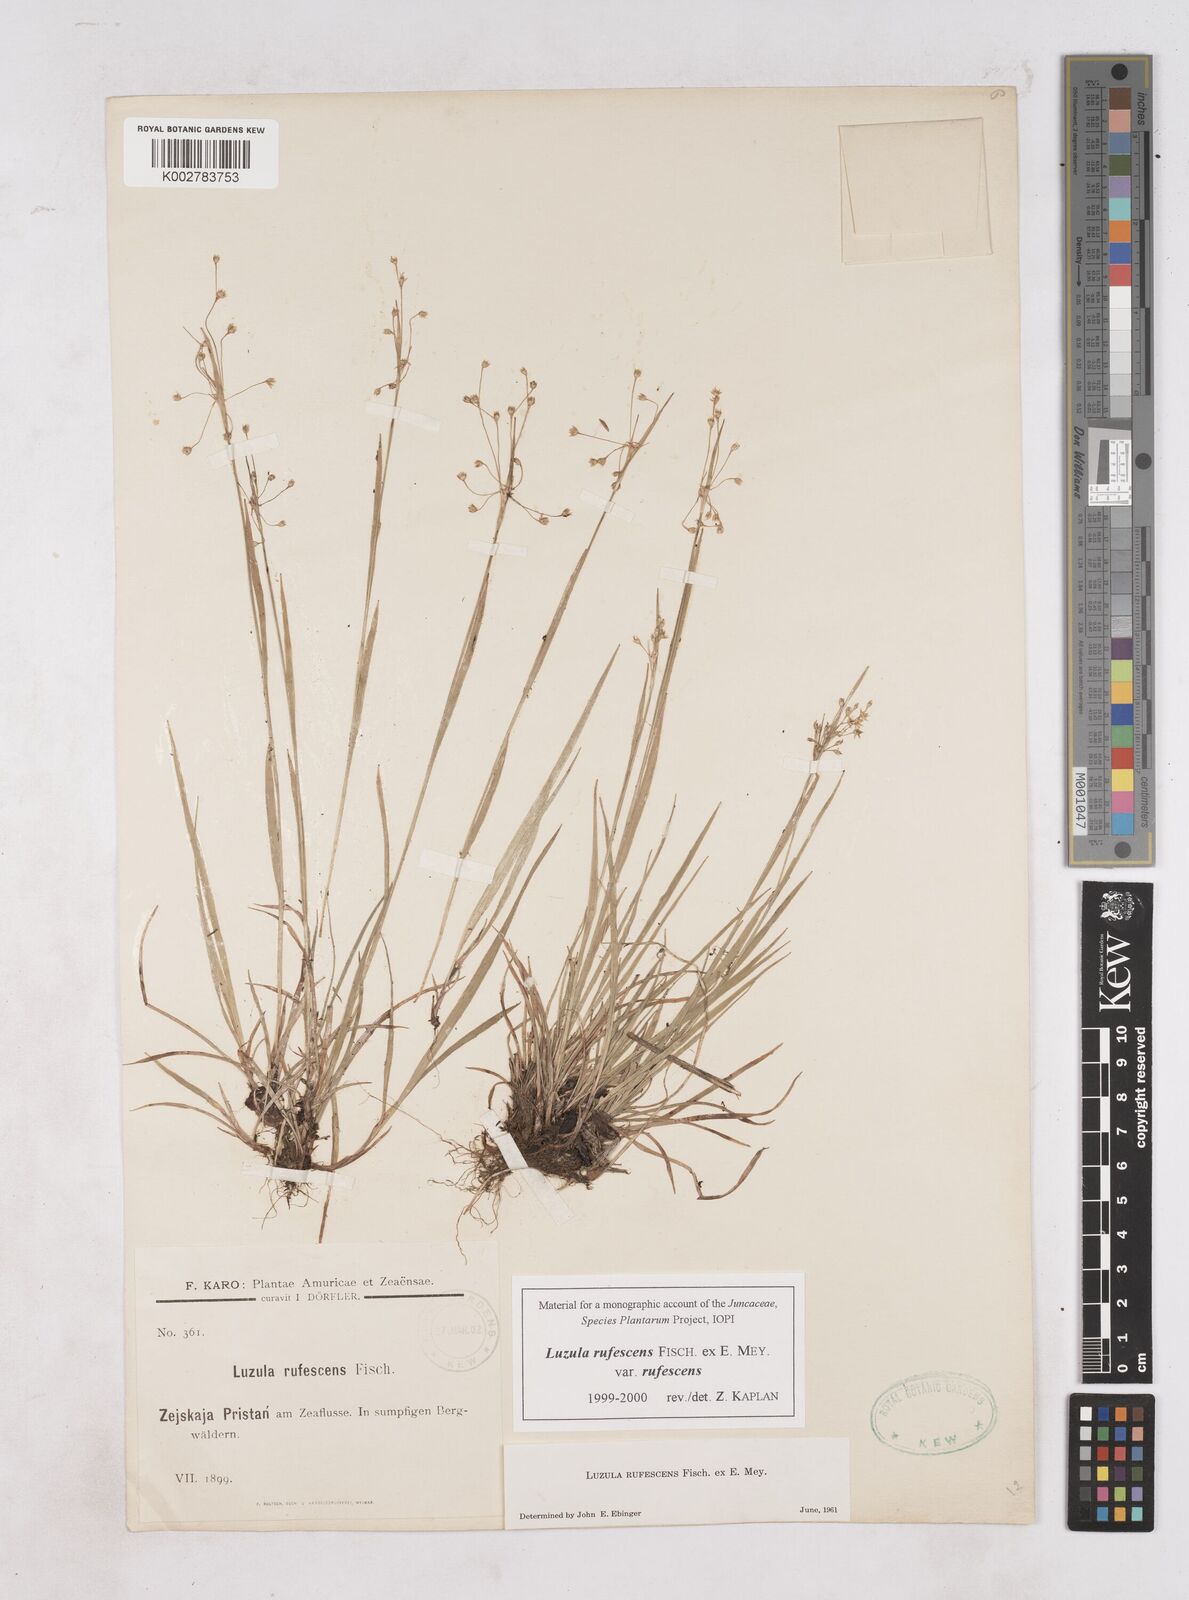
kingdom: Plantae
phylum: Tracheophyta
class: Liliopsida
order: Poales
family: Juncaceae
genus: Luzula
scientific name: Luzula rufescens
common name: Reddish woodrush
